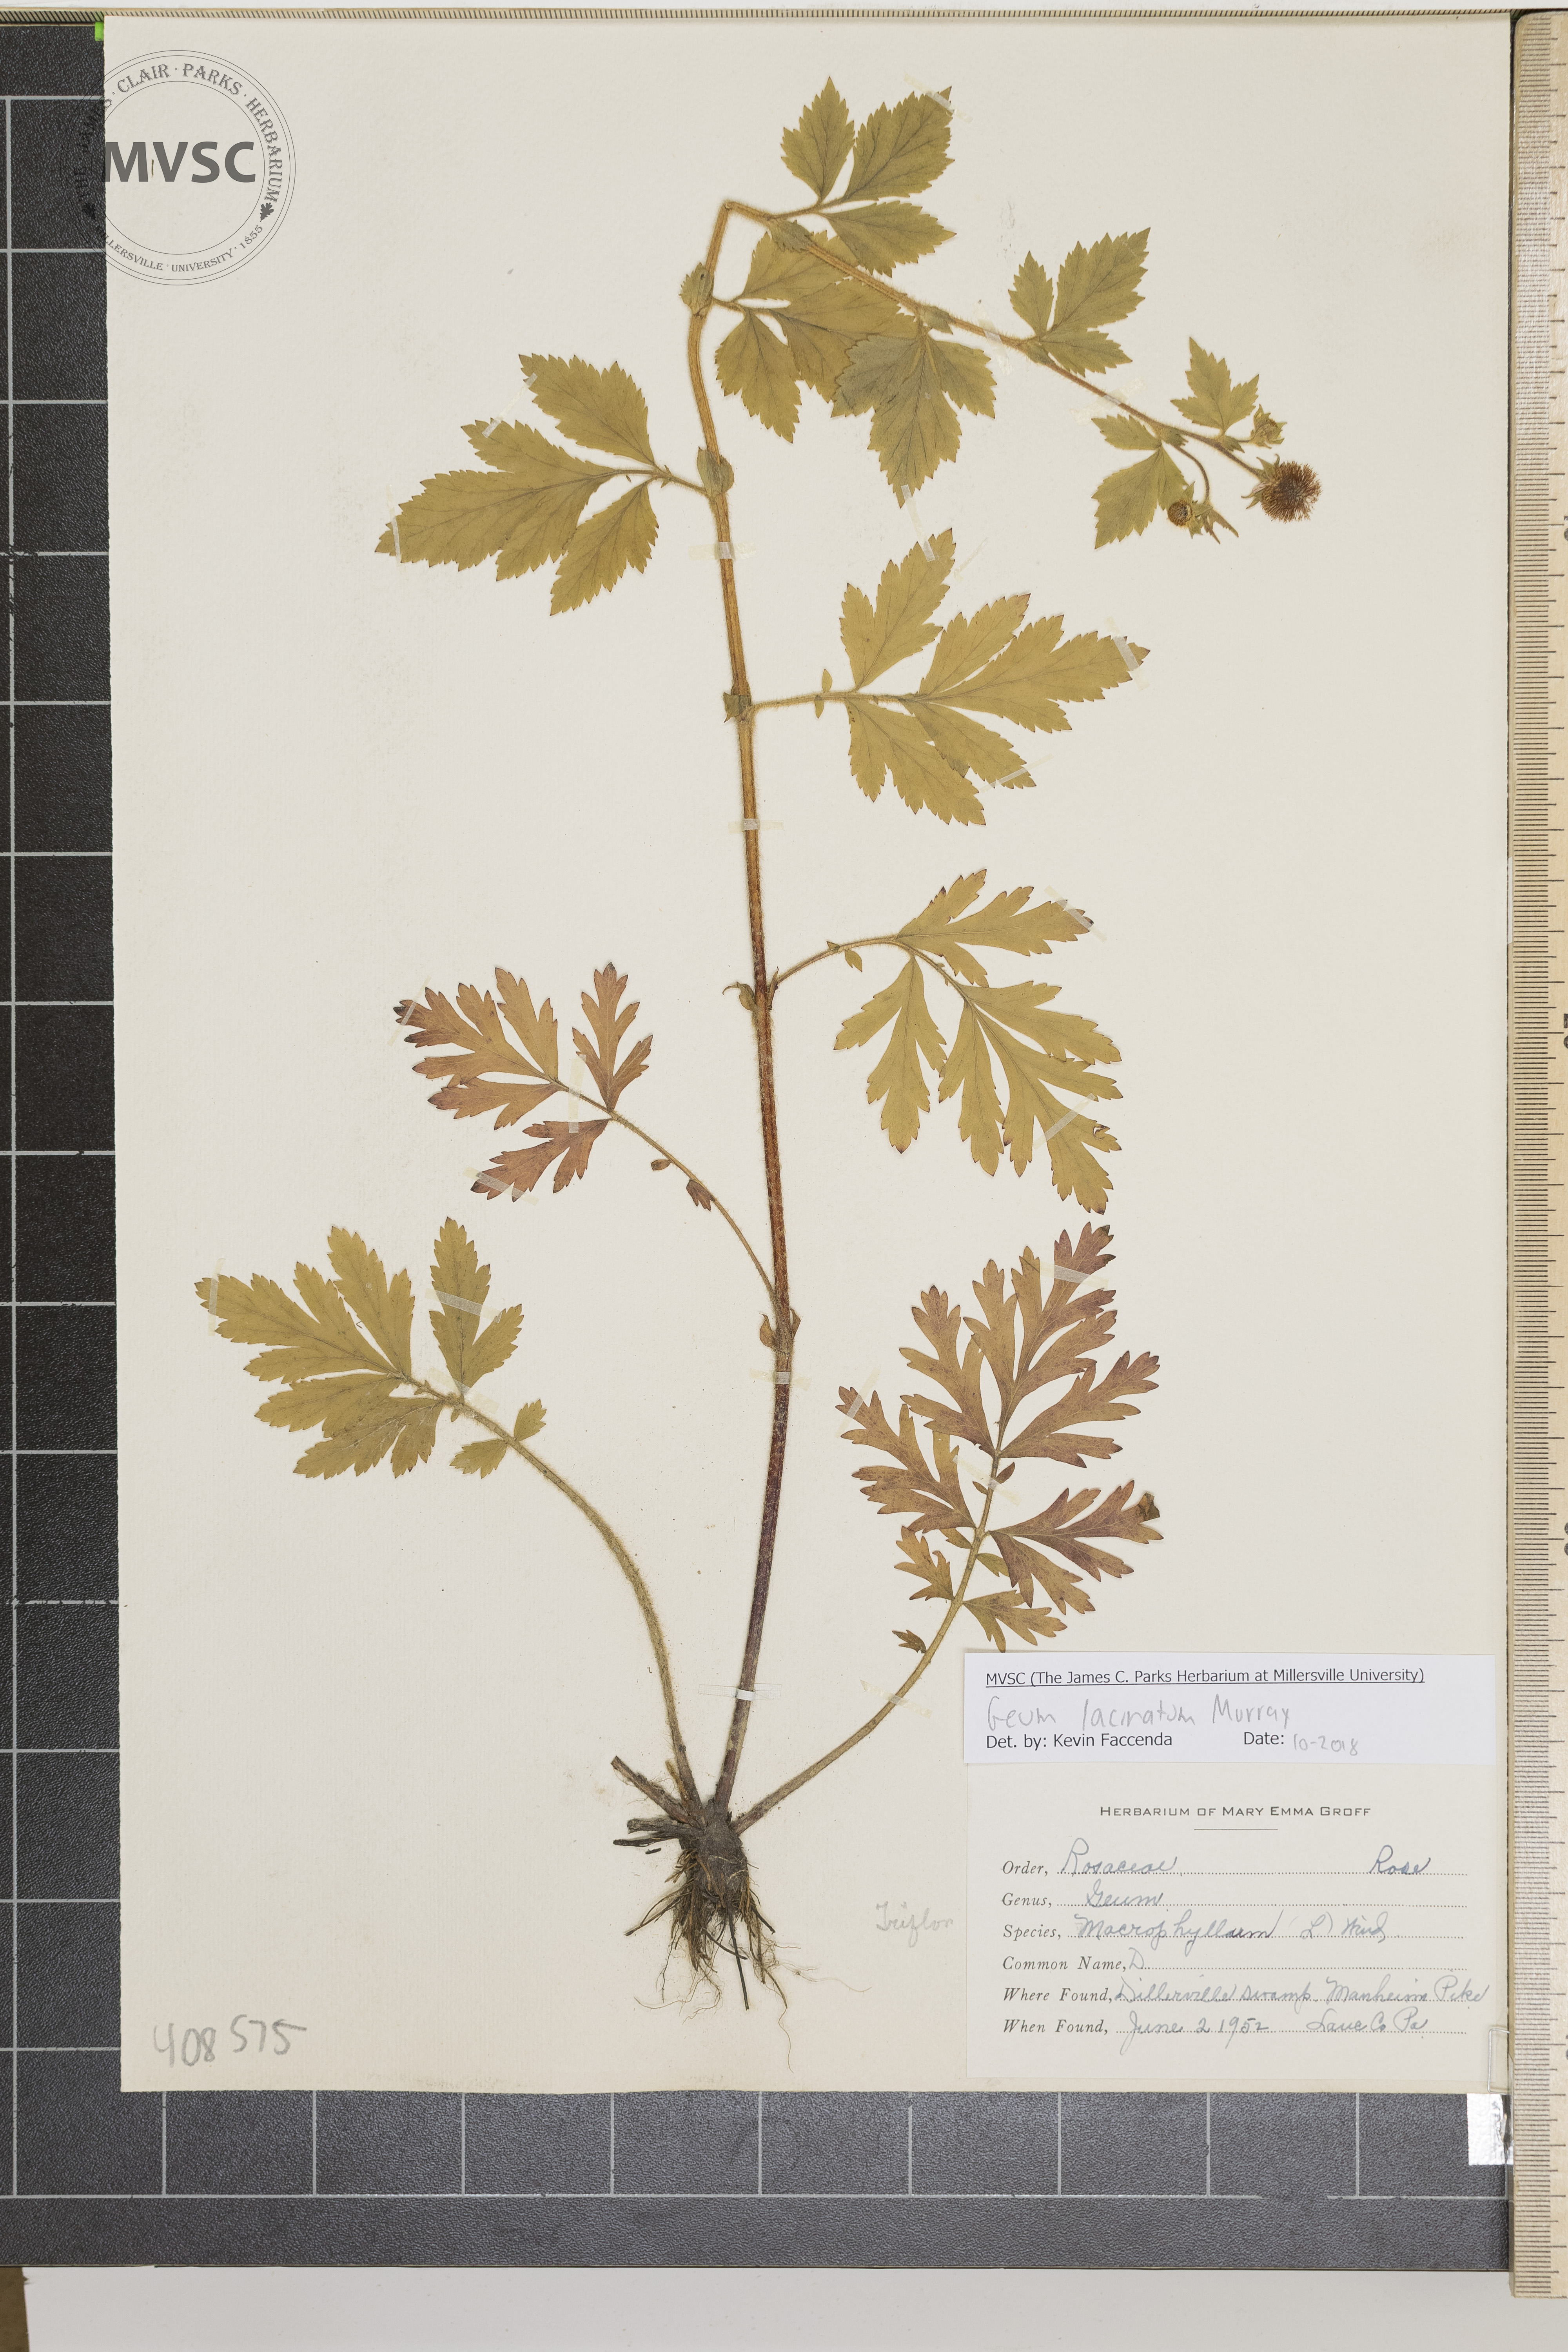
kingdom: Plantae
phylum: Tracheophyta
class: Magnoliopsida
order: Rosales
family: Rosaceae
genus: Geum
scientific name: Geum laciniatum
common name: Rough avens
